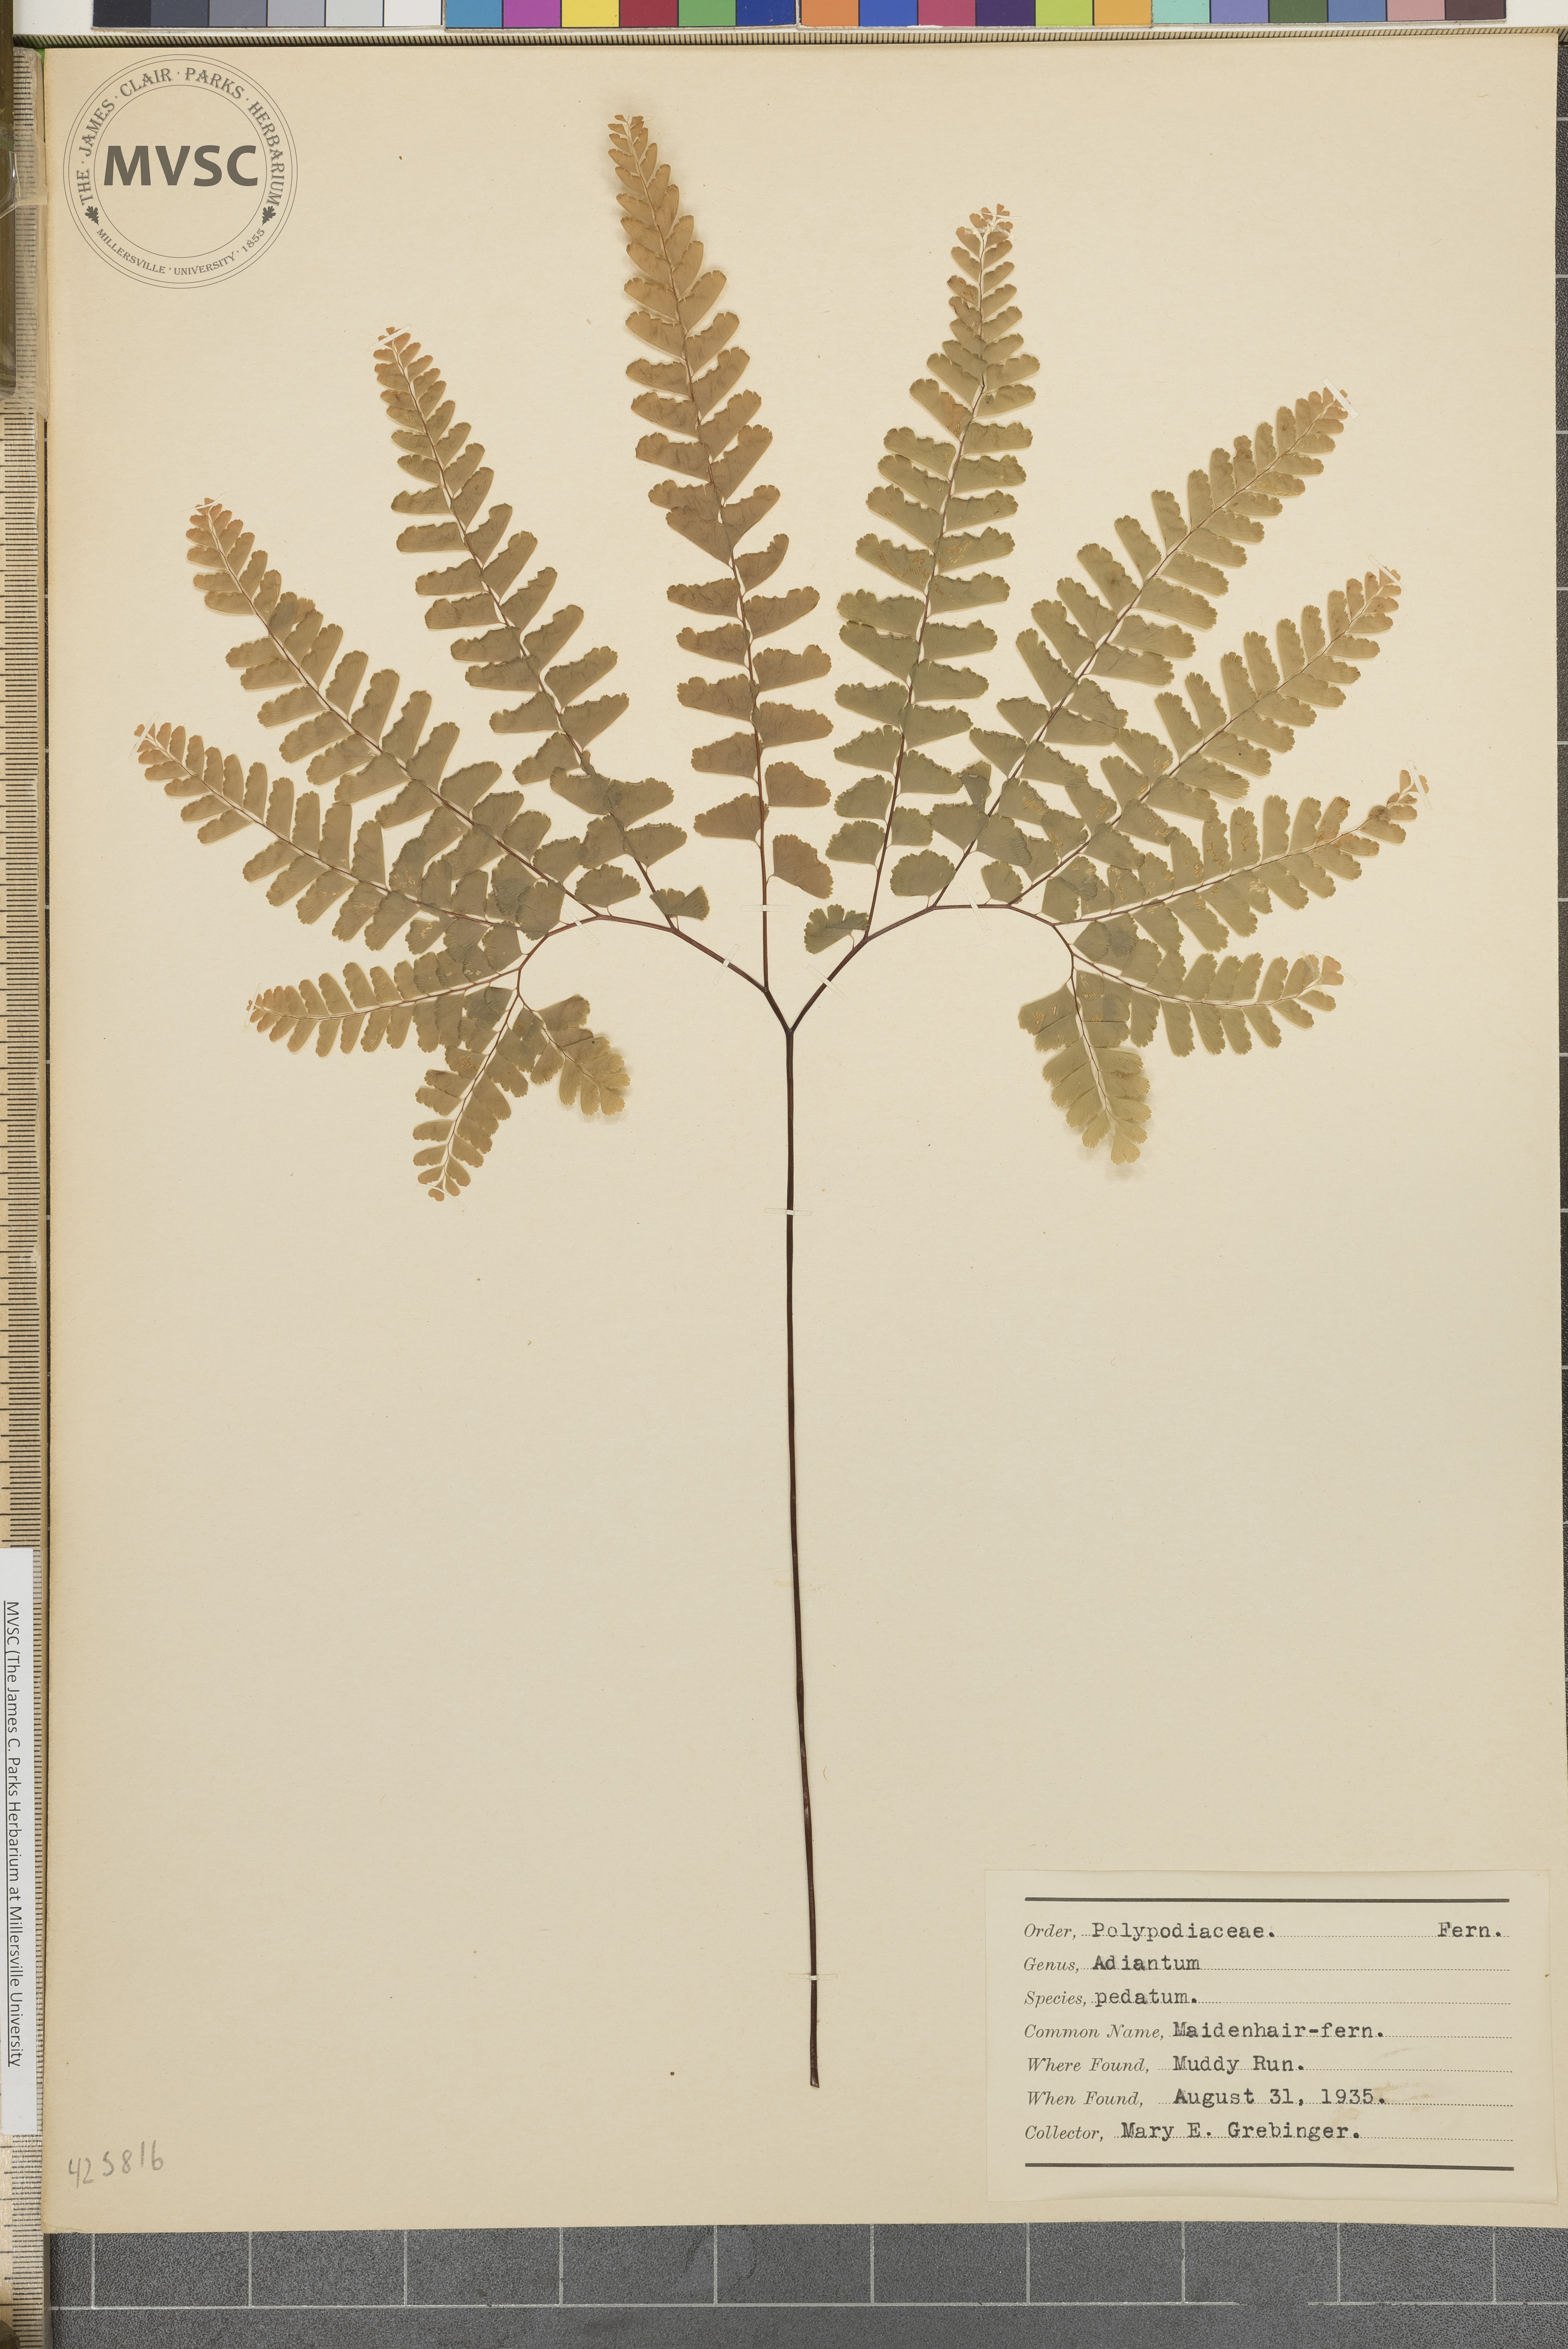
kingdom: Plantae
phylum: Tracheophyta
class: Polypodiopsida
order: Polypodiales
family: Pteridaceae
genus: Adiantum
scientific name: Adiantum pedatum
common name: Maidenhair fern
